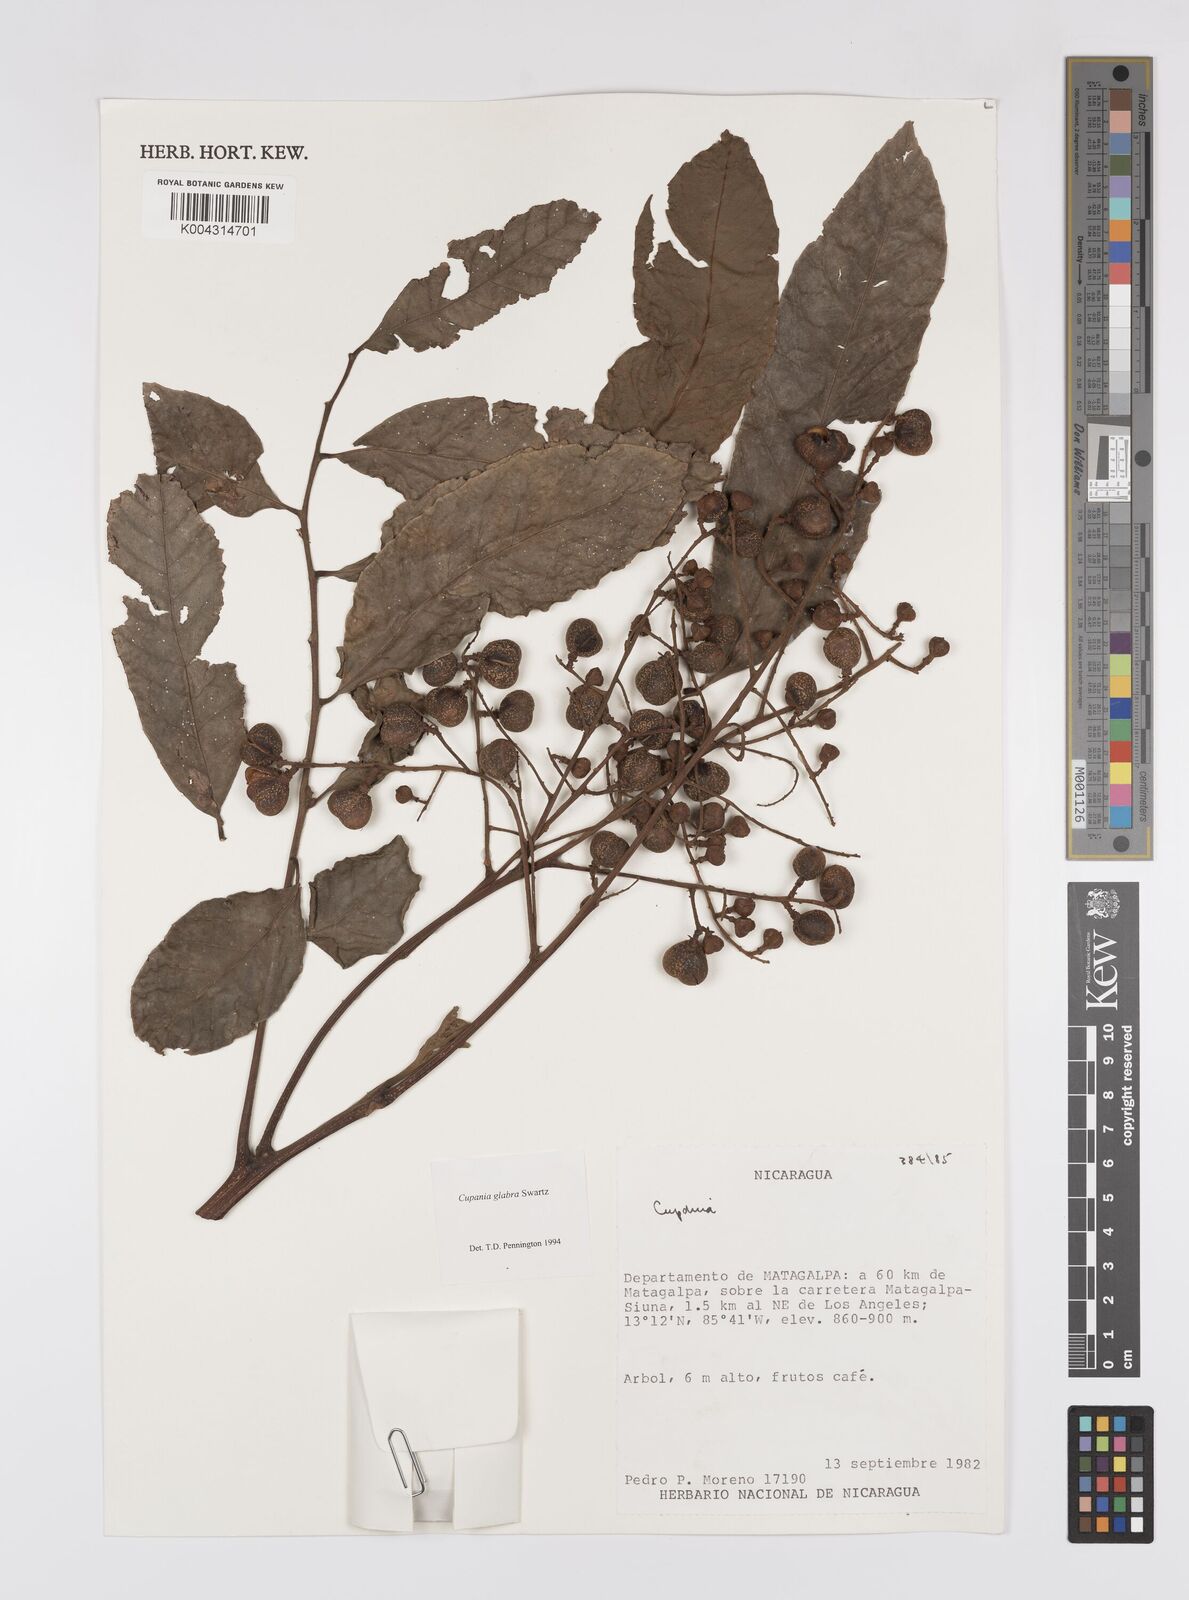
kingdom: Plantae
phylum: Tracheophyta
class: Magnoliopsida
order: Sapindales
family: Sapindaceae
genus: Cupania
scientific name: Cupania
